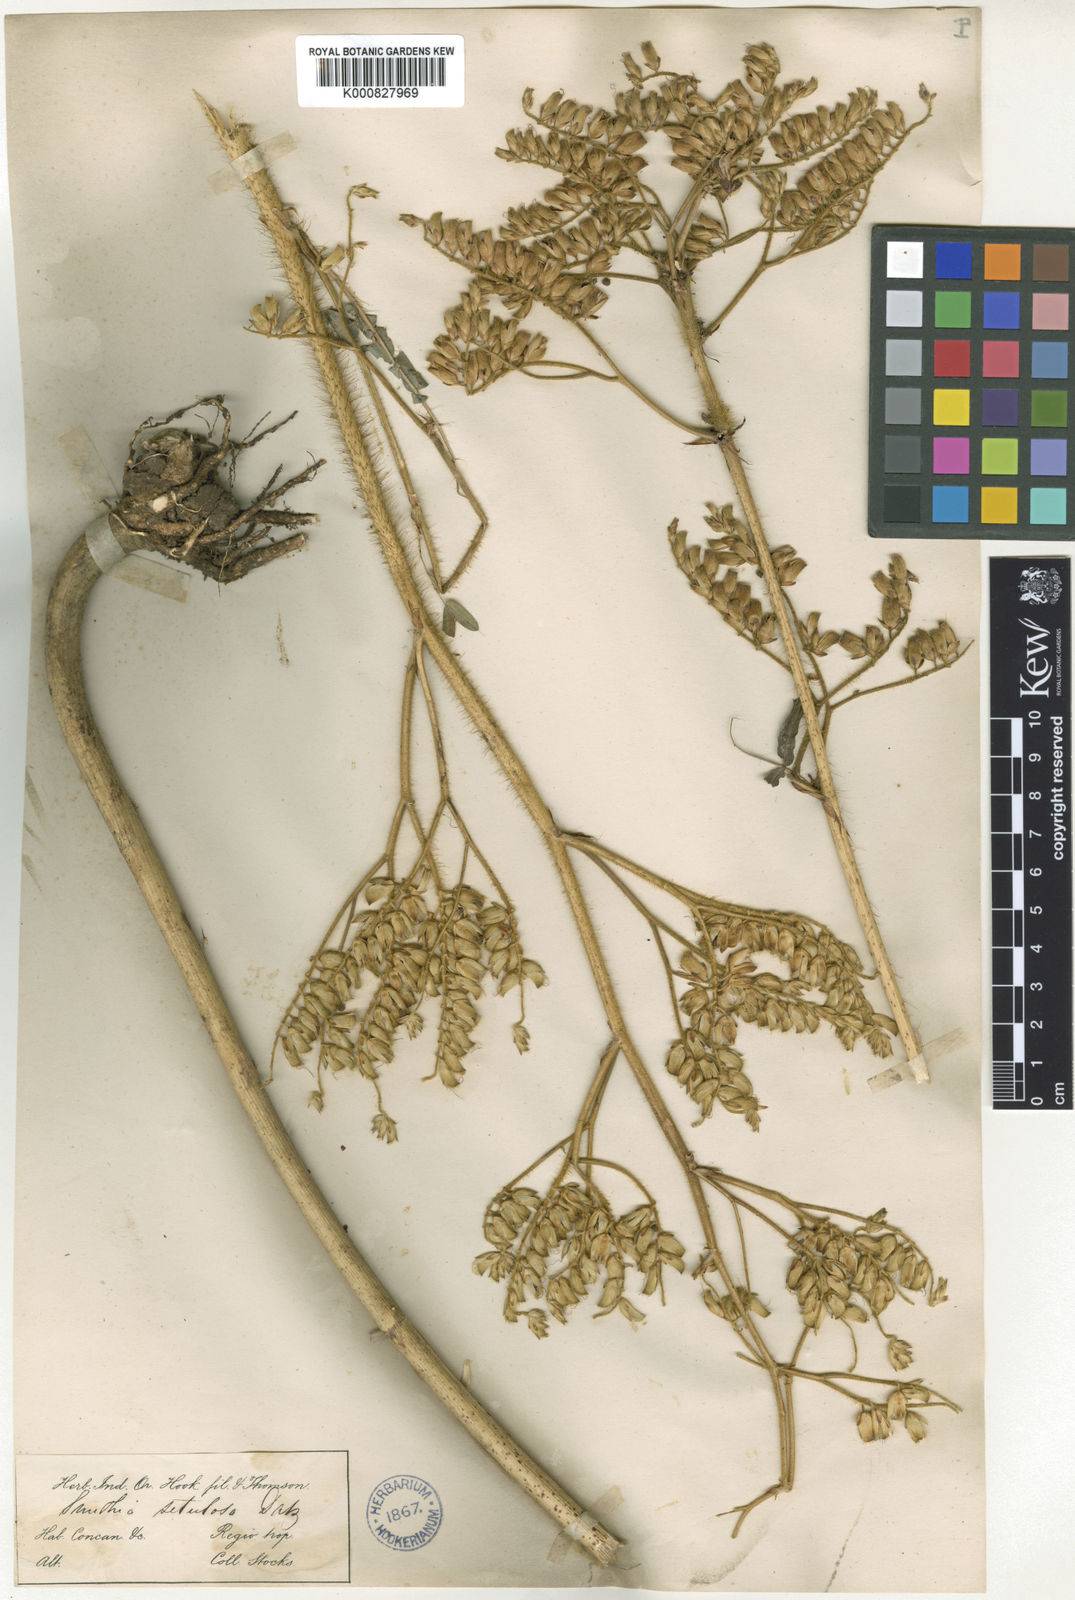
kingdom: Plantae
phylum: Tracheophyta
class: Magnoliopsida
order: Fabales
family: Fabaceae
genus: Smithia
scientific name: Smithia setulosa
